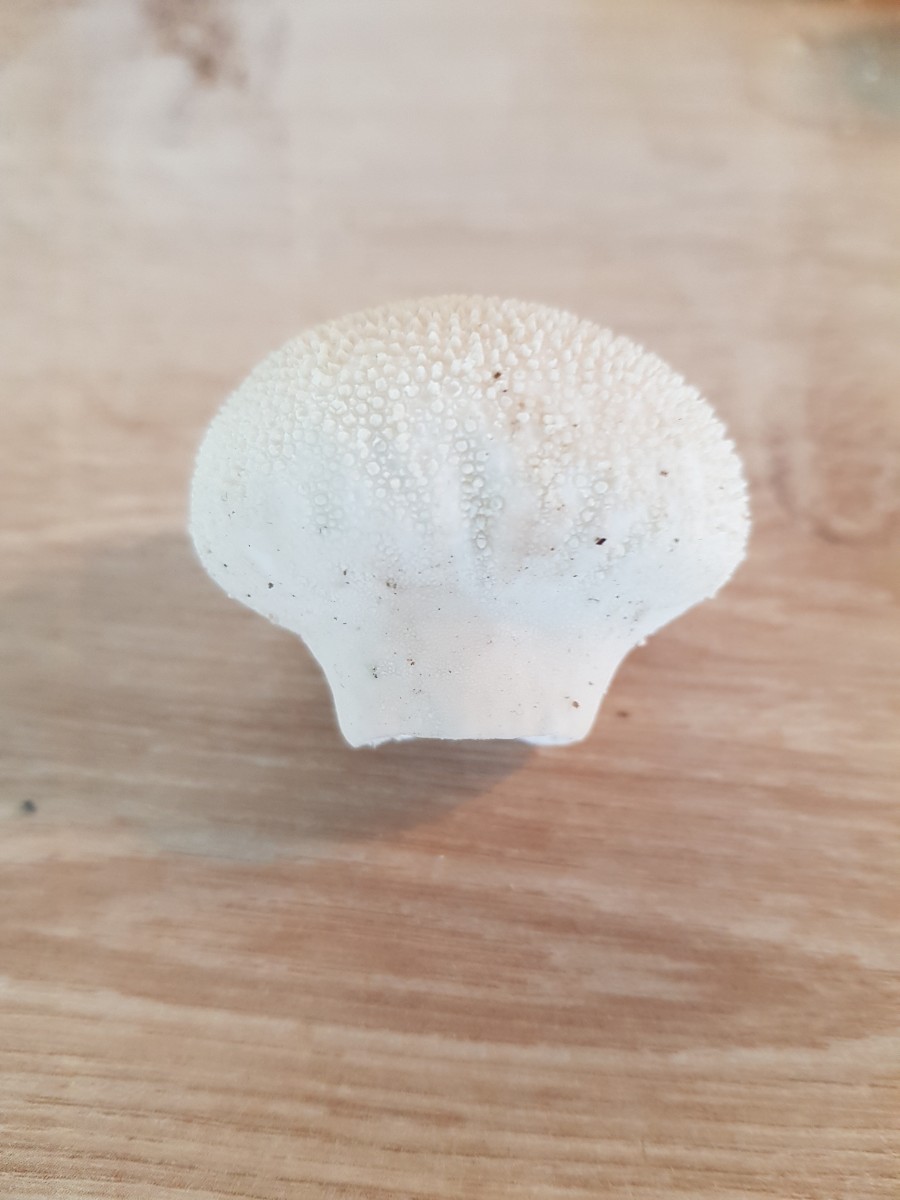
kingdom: Fungi
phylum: Basidiomycota
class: Agaricomycetes
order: Agaricales
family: Lycoperdaceae
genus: Lycoperdon
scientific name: Lycoperdon perlatum
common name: krystal-støvbold
